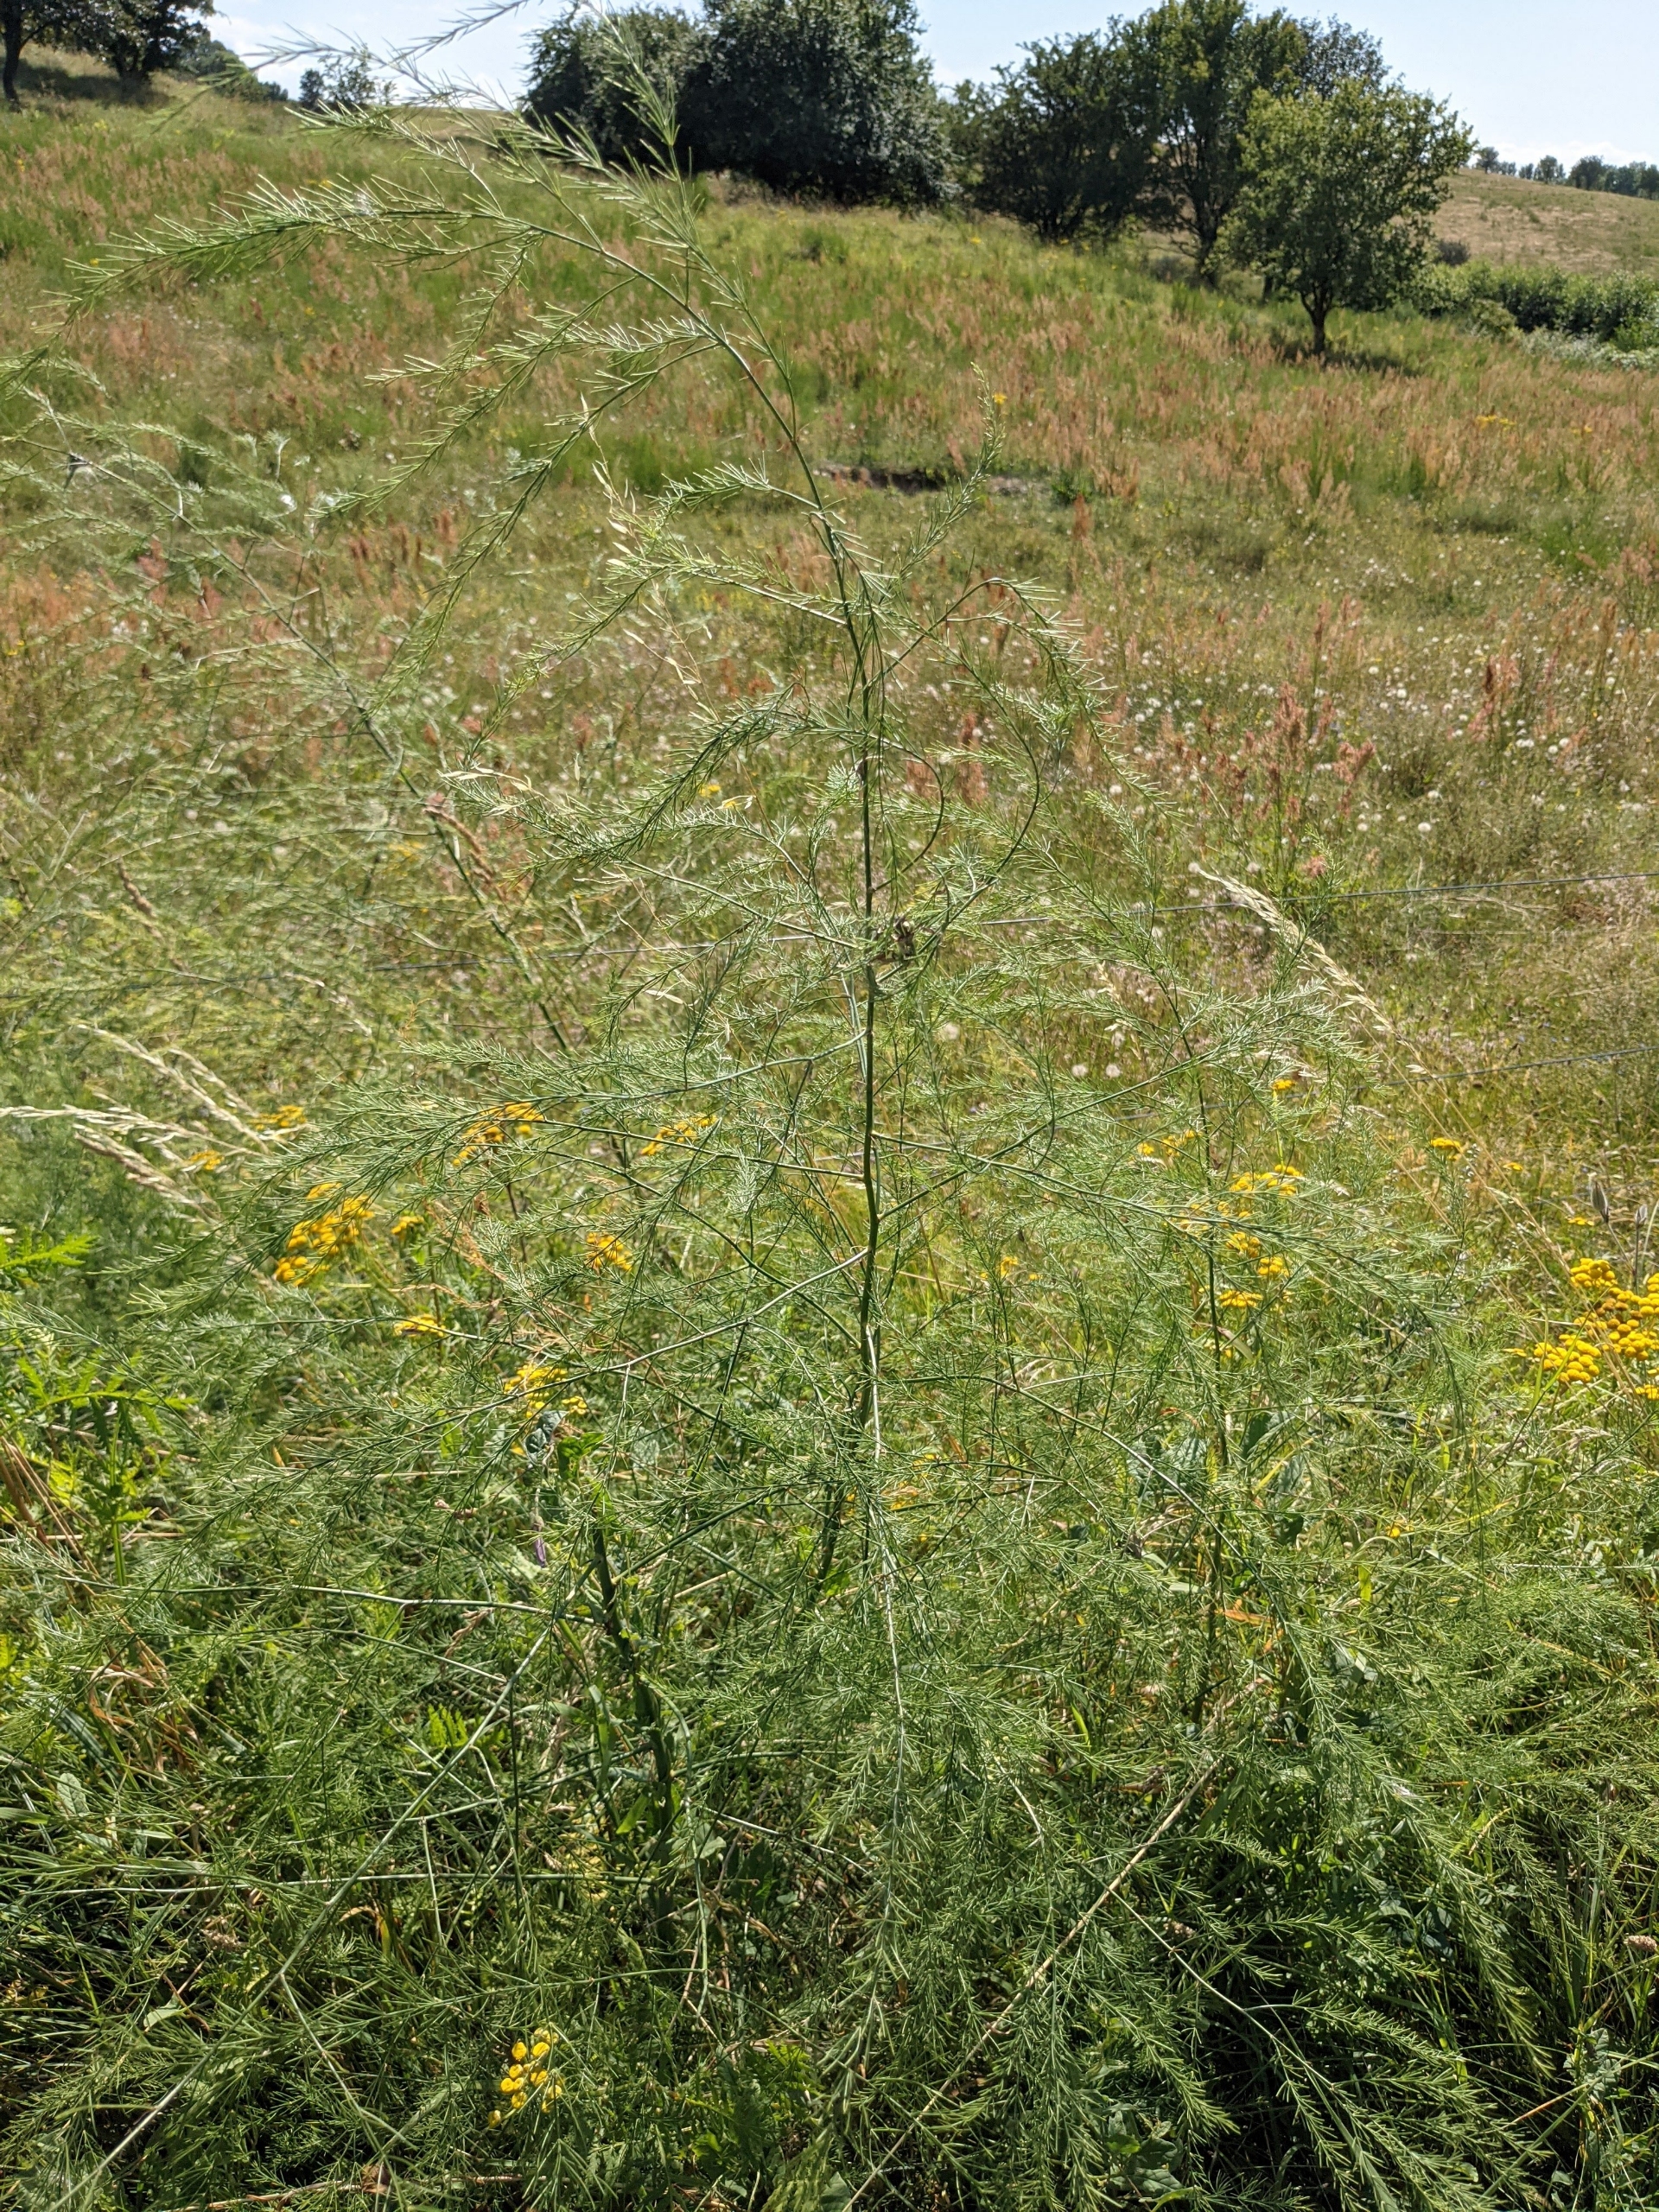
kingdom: Plantae
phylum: Tracheophyta
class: Liliopsida
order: Asparagales
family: Asparagaceae
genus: Asparagus
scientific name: Asparagus officinalis
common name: Asparges
